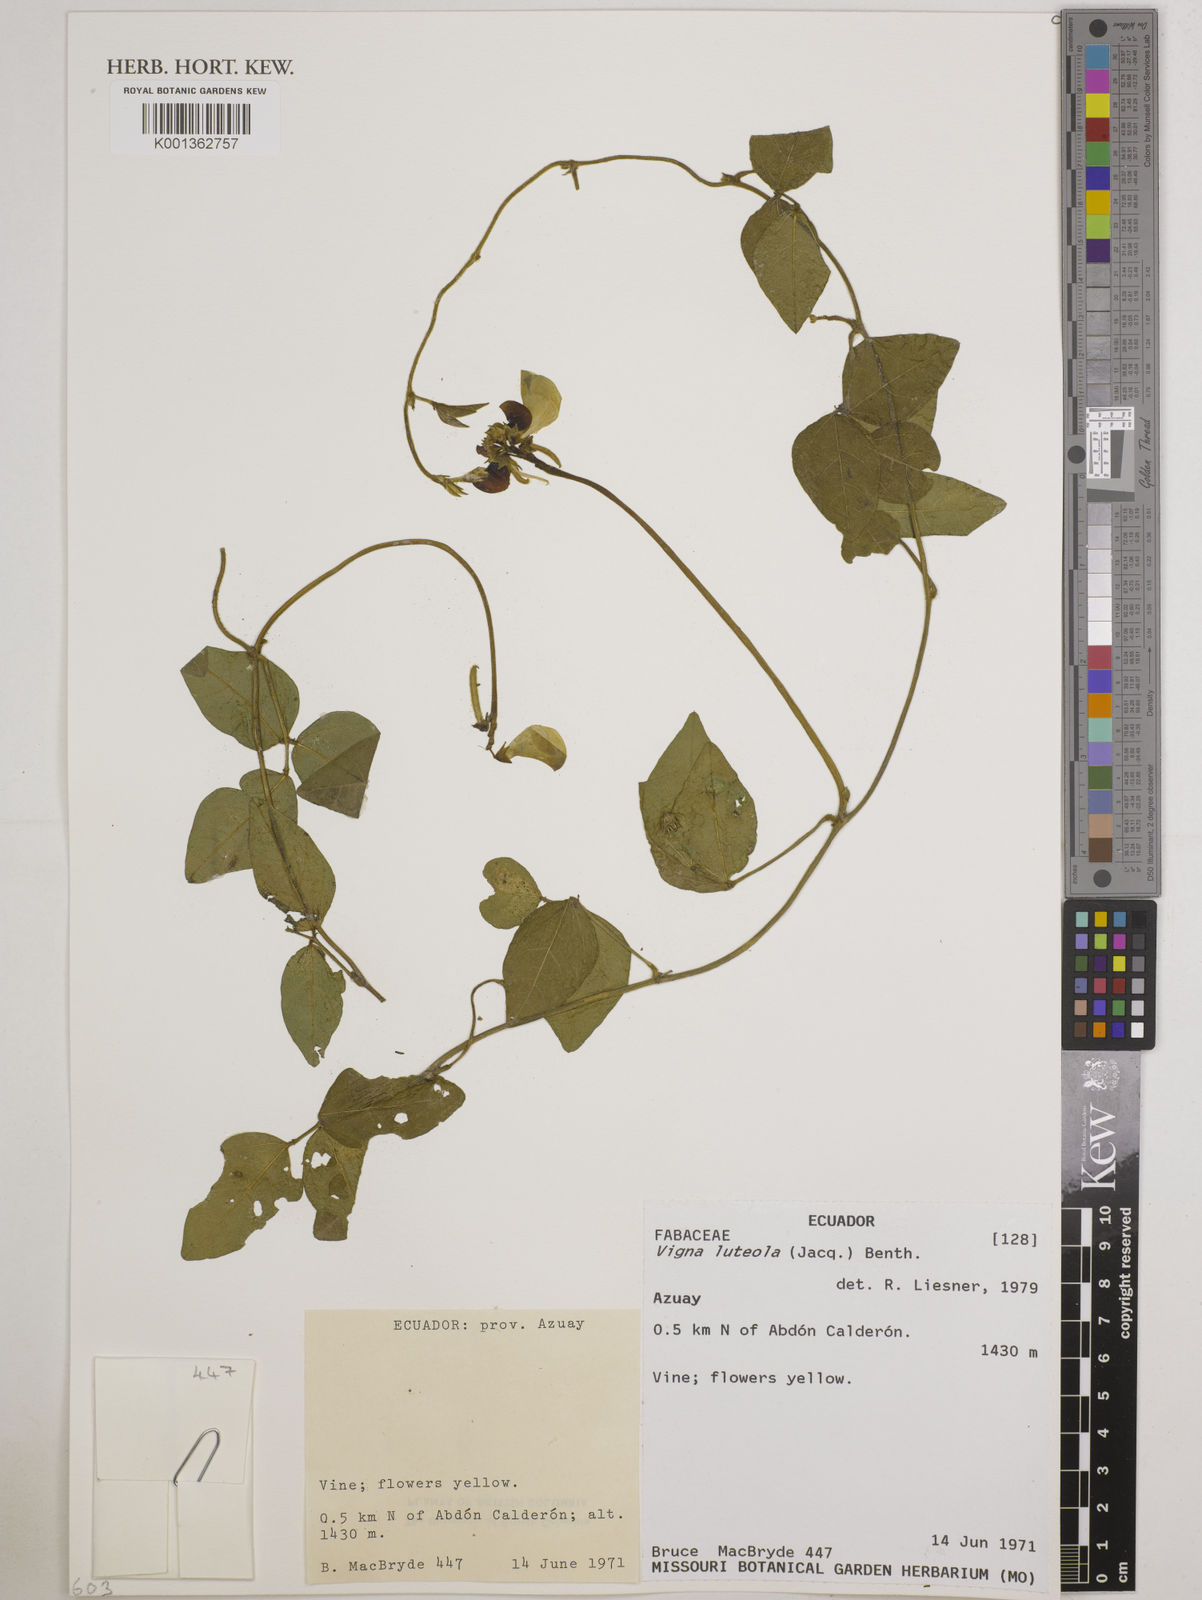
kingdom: Plantae
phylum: Tracheophyta
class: Magnoliopsida
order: Fabales
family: Fabaceae
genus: Vigna
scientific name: Vigna luteola
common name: Hairypod cowpea
